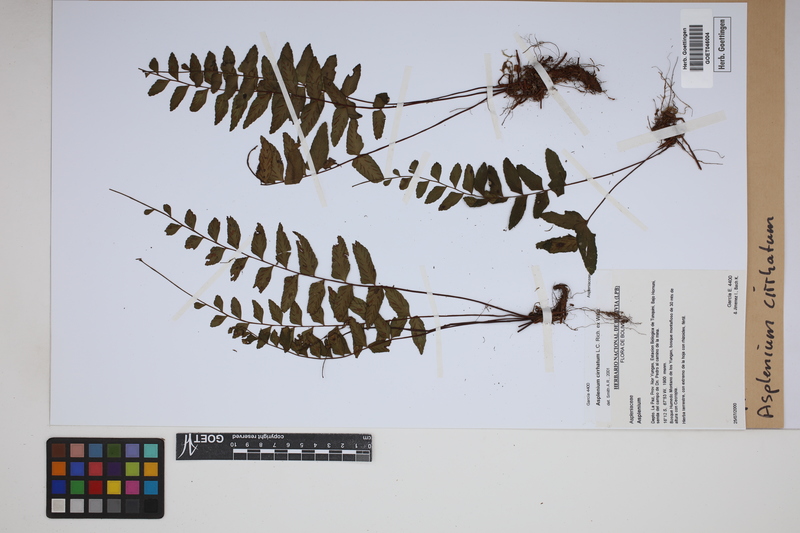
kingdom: Plantae
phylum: Tracheophyta
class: Polypodiopsida
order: Polypodiales
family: Aspleniaceae
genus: Asplenium
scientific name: Asplenium cirrhatum
